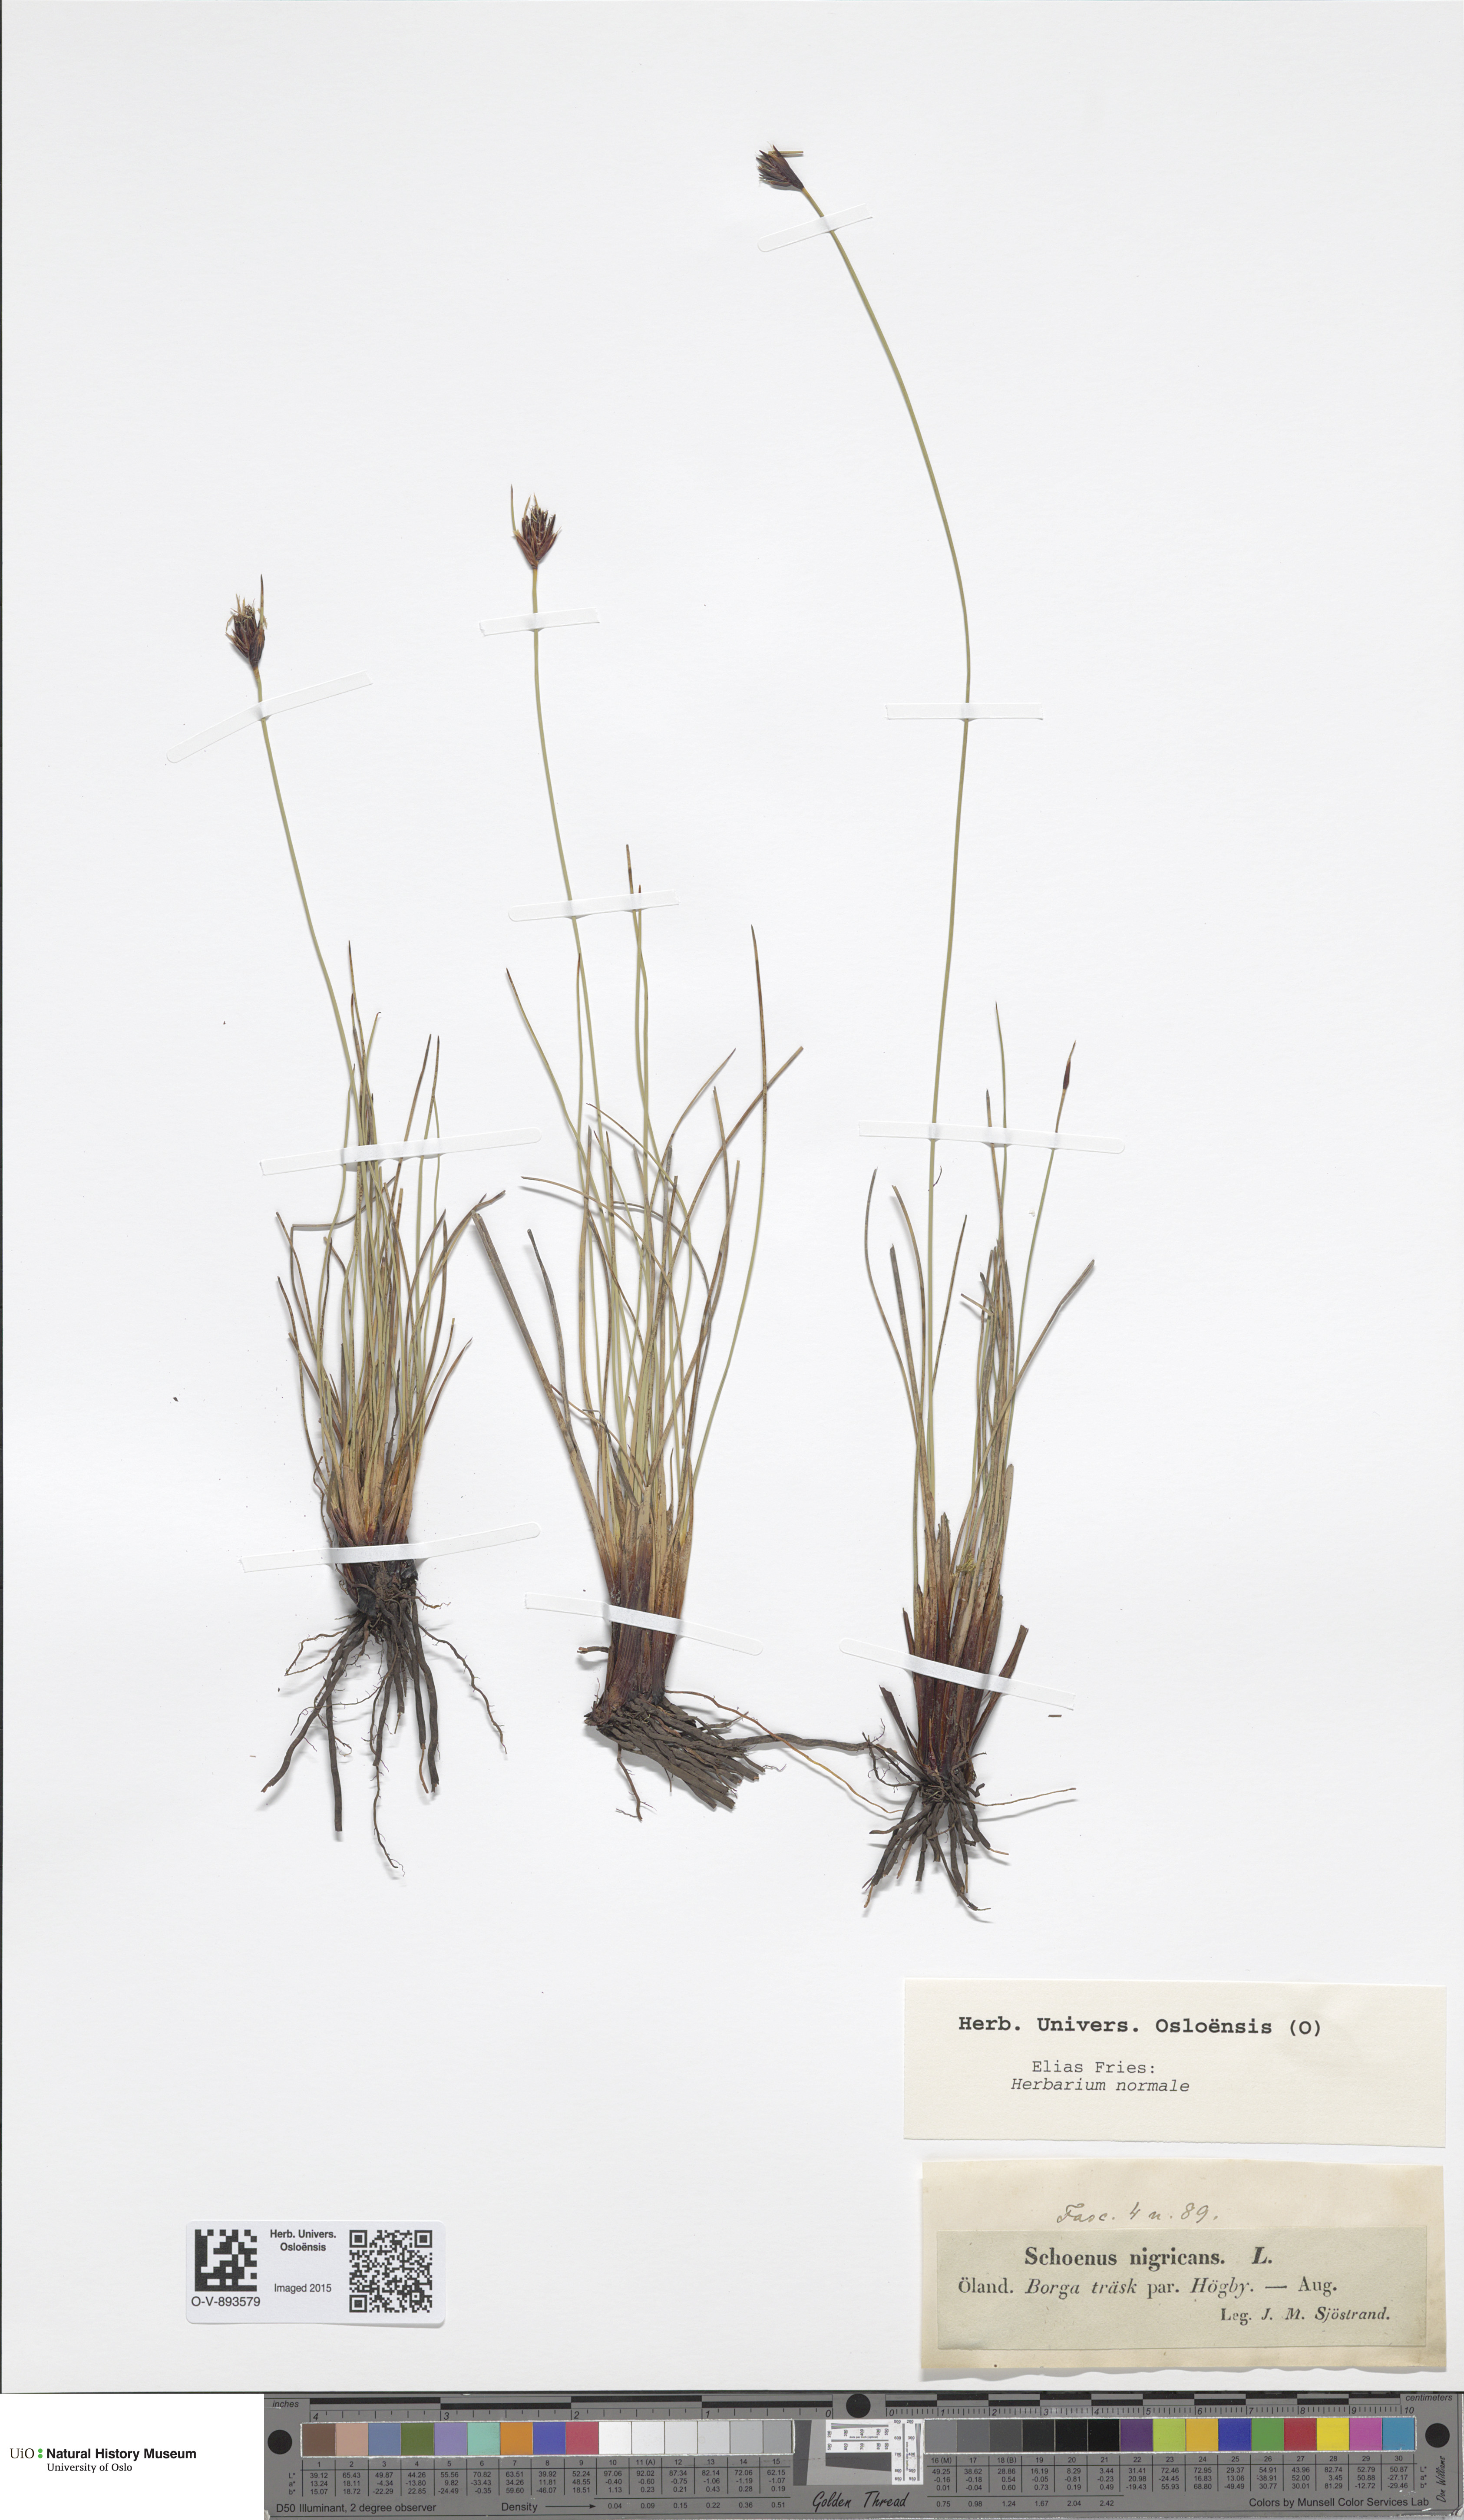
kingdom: Plantae
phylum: Tracheophyta
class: Liliopsida
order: Poales
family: Cyperaceae
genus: Schoenus
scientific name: Schoenus nigricans
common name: Black bog-rush
